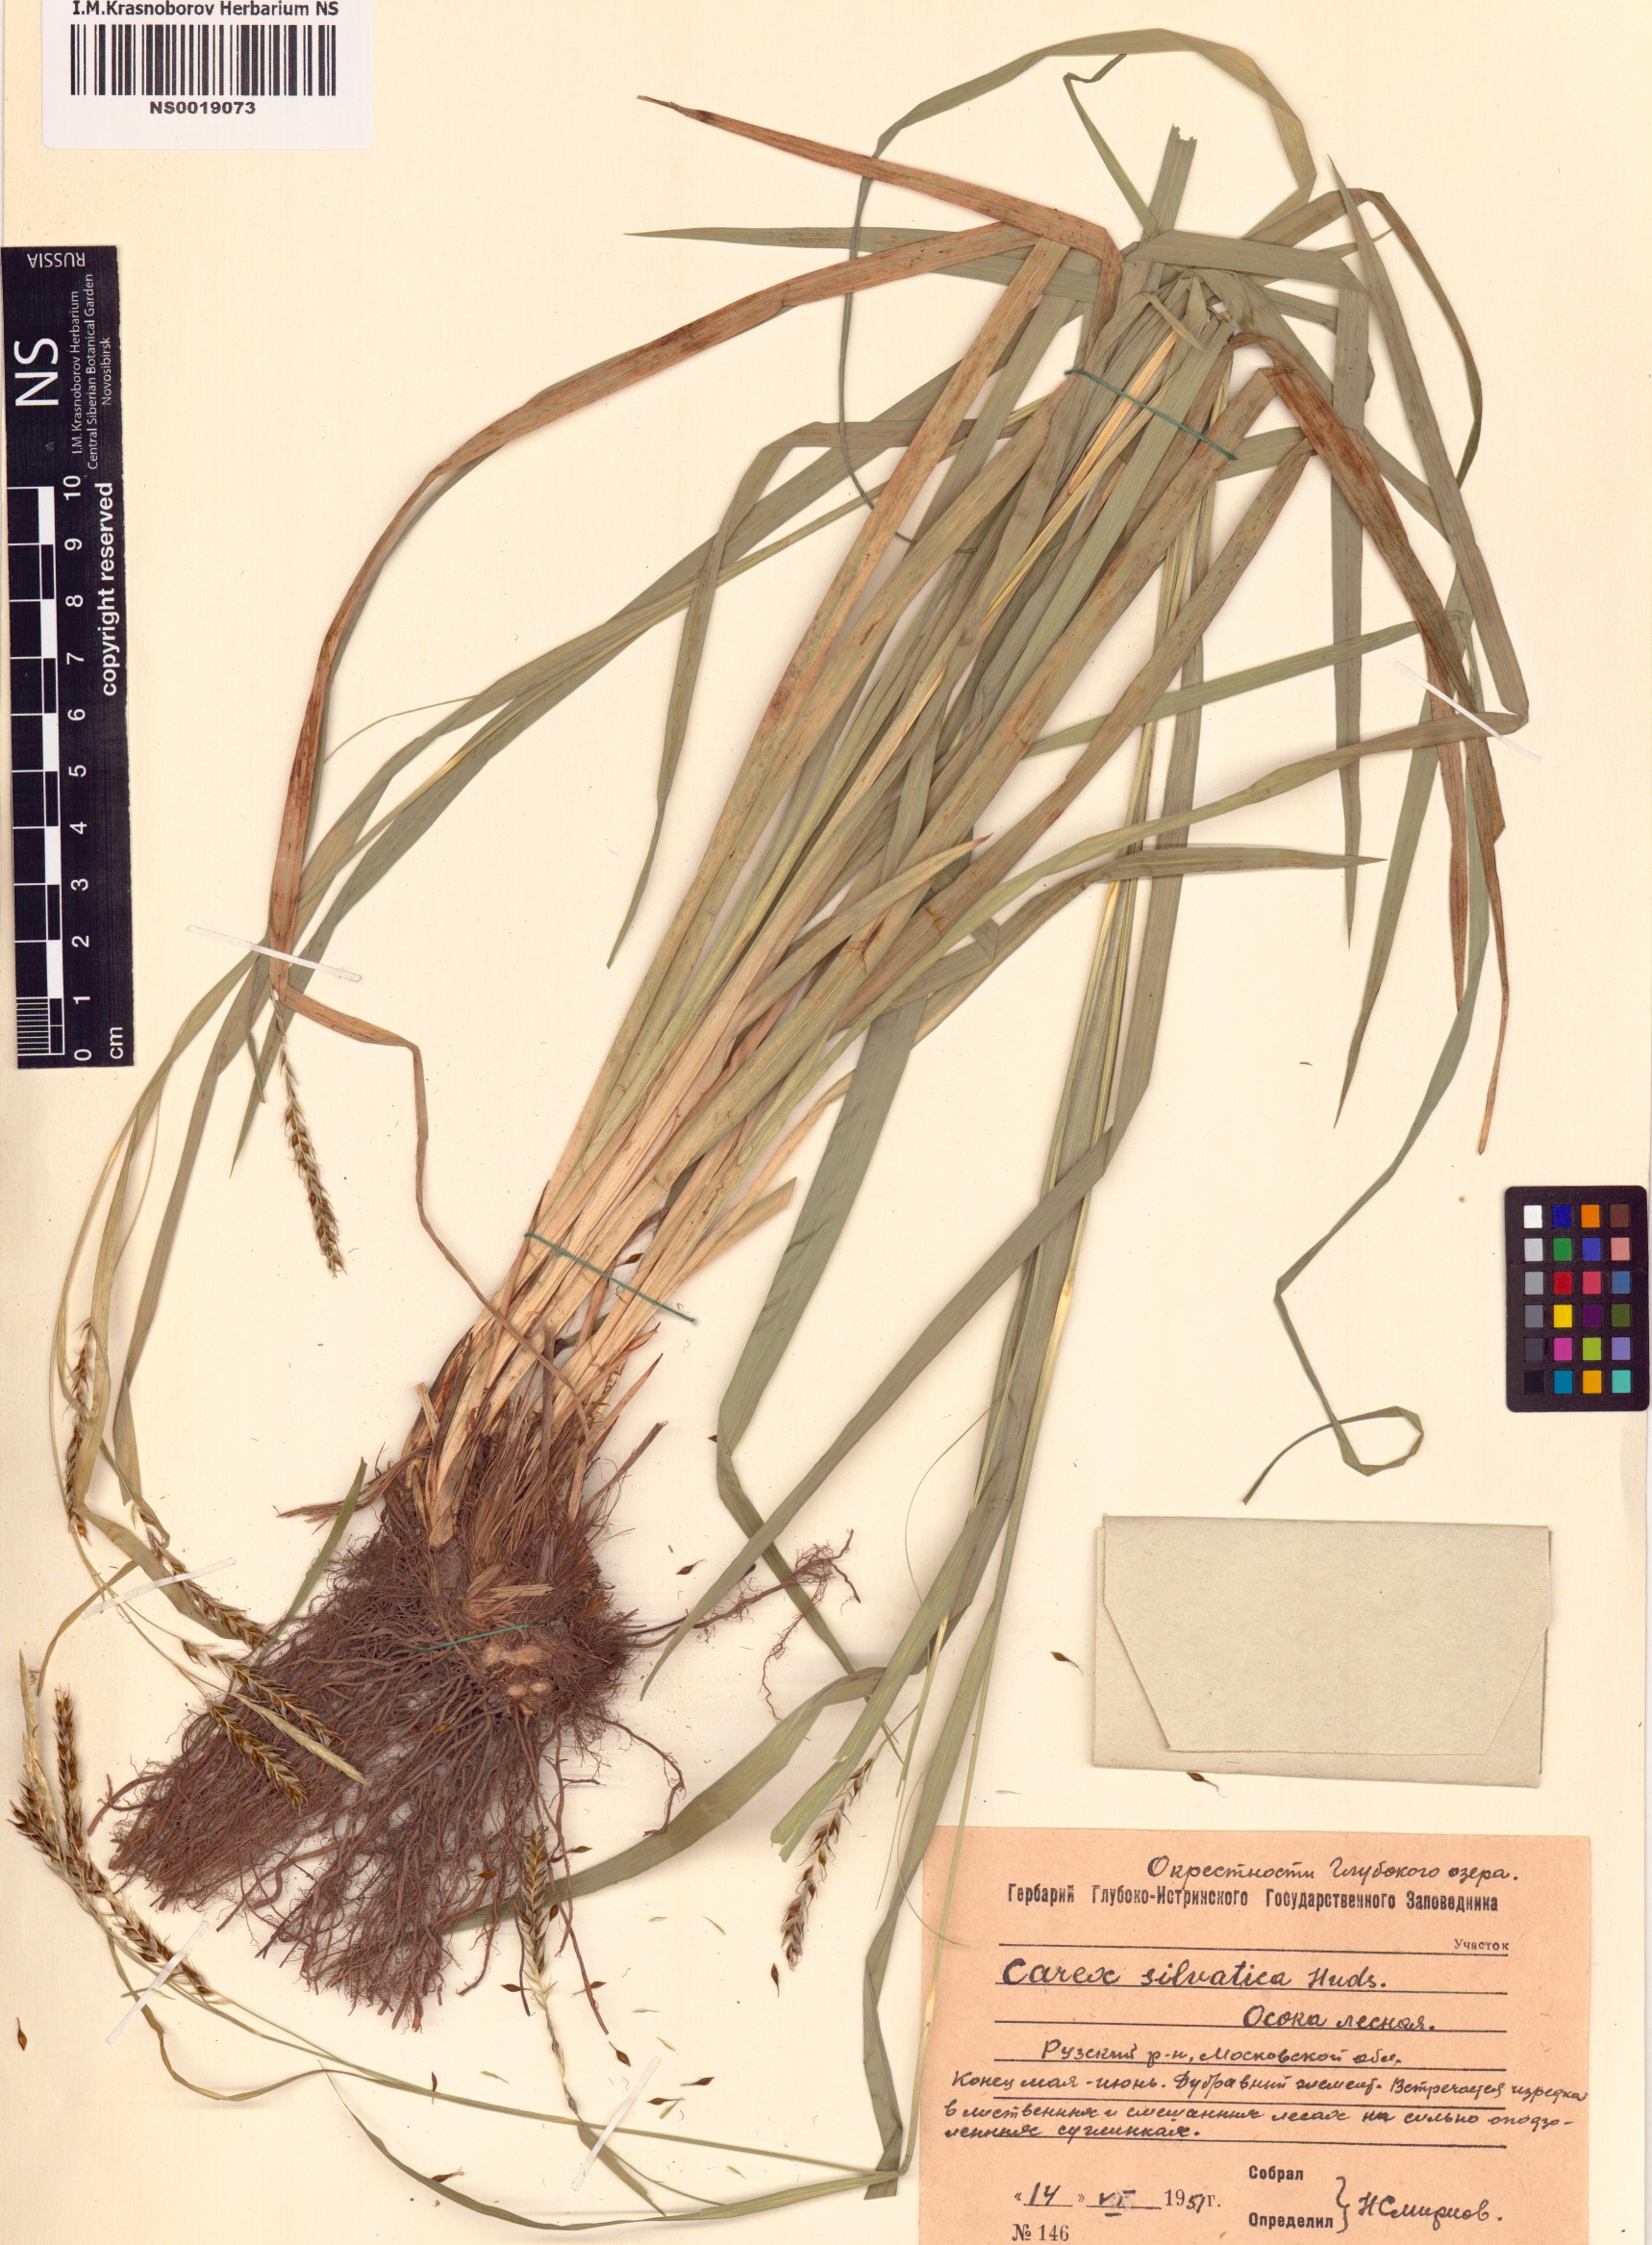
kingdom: Plantae
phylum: Tracheophyta
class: Liliopsida
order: Poales
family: Cyperaceae
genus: Carex
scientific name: Carex sylvatica
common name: Wood-sedge
